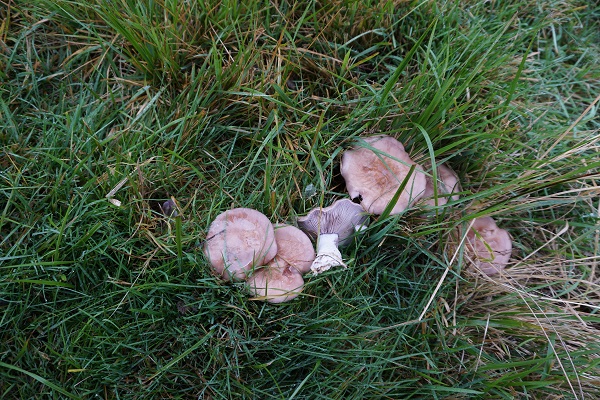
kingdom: Fungi
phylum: Basidiomycota
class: Agaricomycetes
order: Agaricales
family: Tricholomataceae
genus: Lepista
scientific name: Lepista nuda
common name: violet hekseringshat
